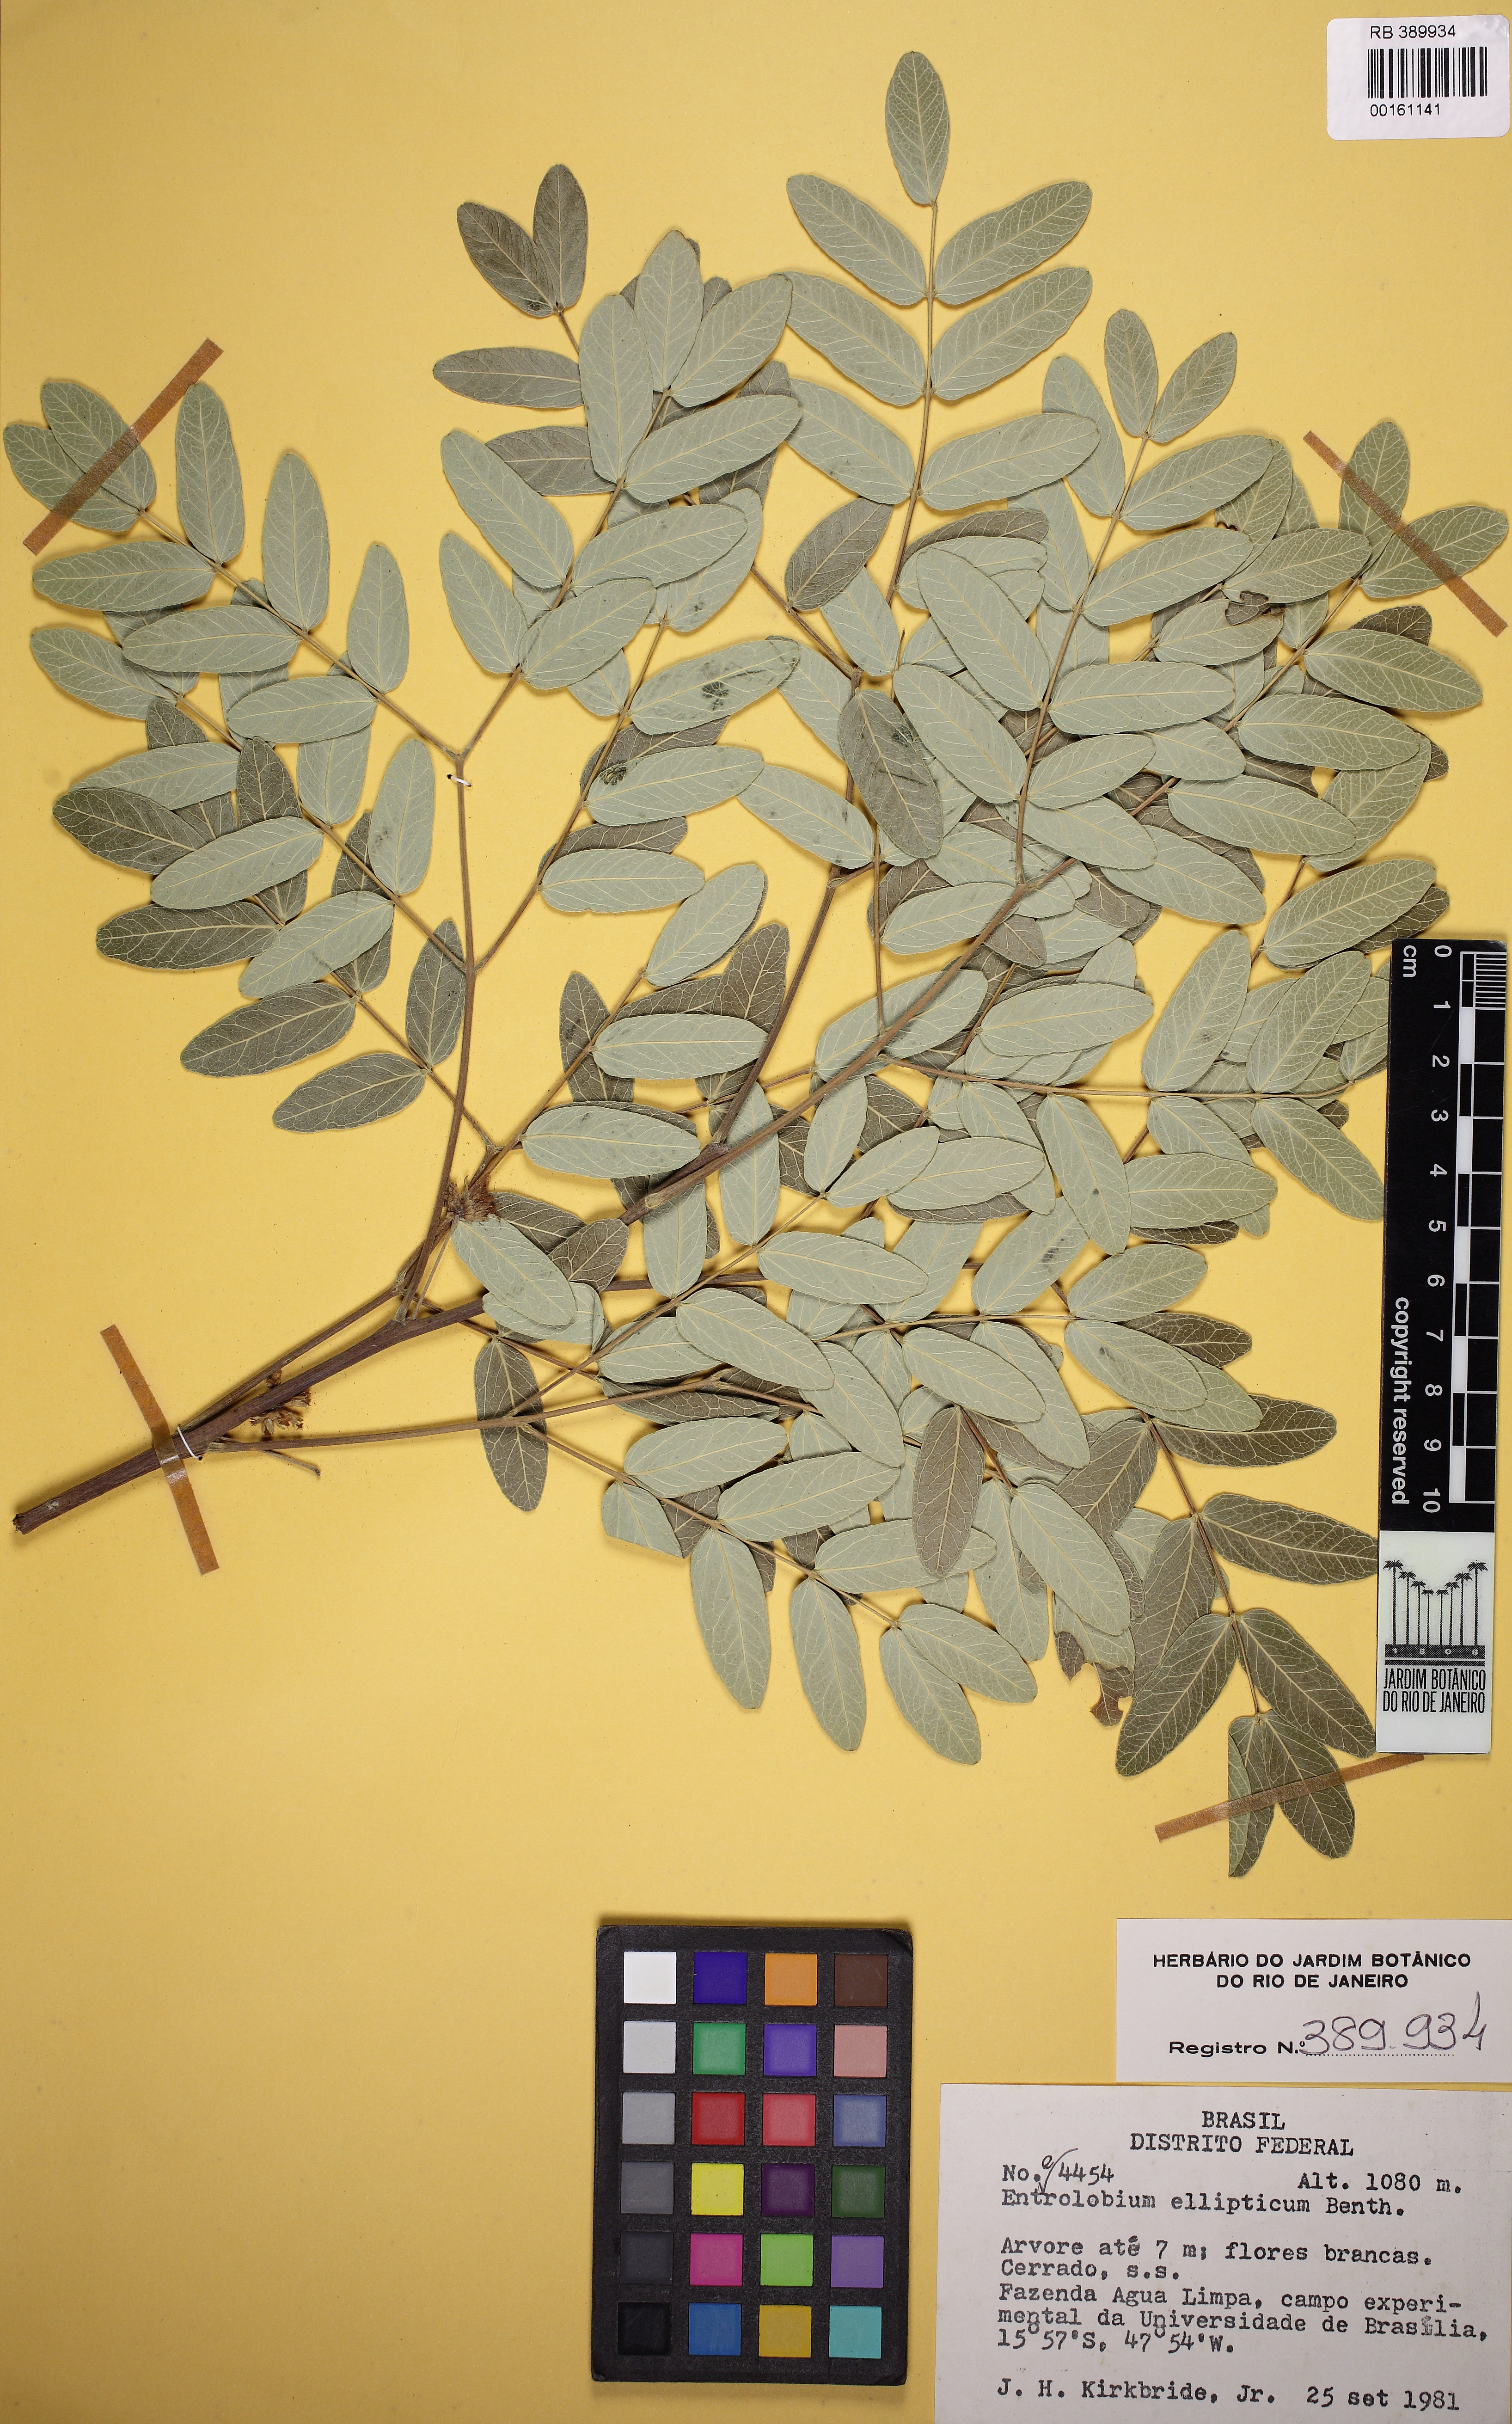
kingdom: Plantae
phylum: Tracheophyta
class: Magnoliopsida
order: Fabales
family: Fabaceae
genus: Enterolobium
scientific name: Enterolobium gummiferum
